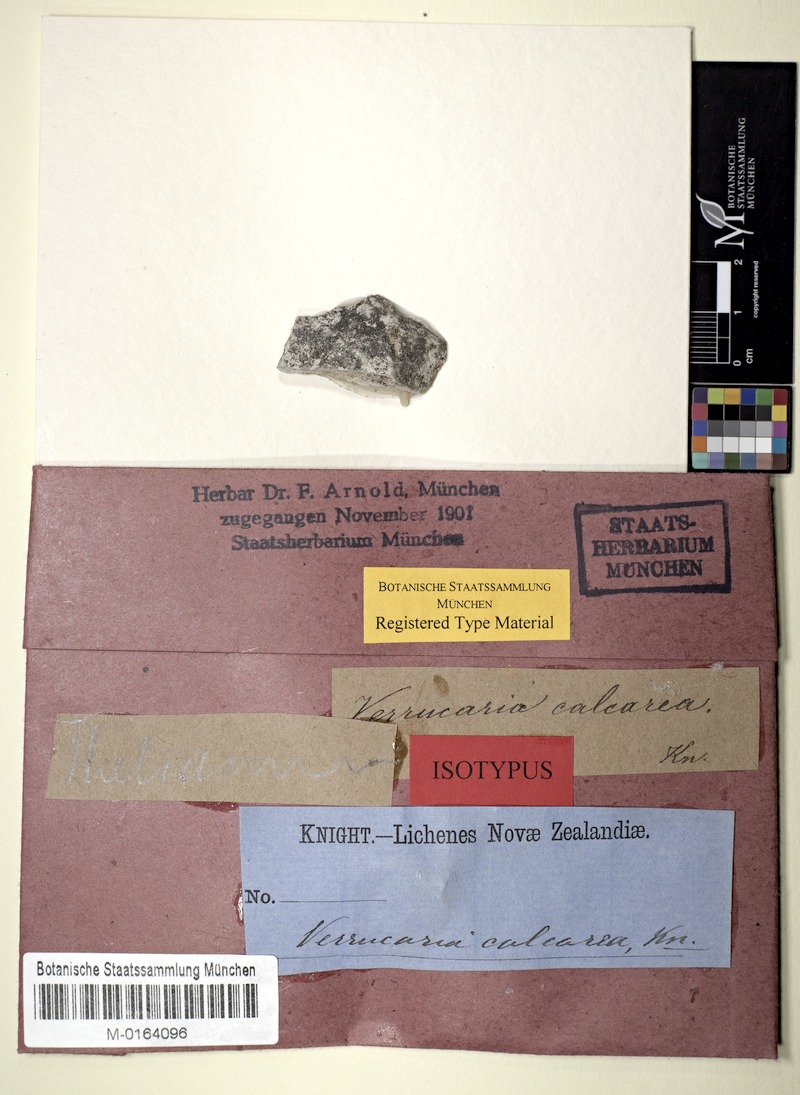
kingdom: Fungi
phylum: Ascomycota
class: Dothideomycetes
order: Pleosporales
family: Arthopyreniaceae
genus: Arthopyrenia
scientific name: Arthopyrenia calcarea
